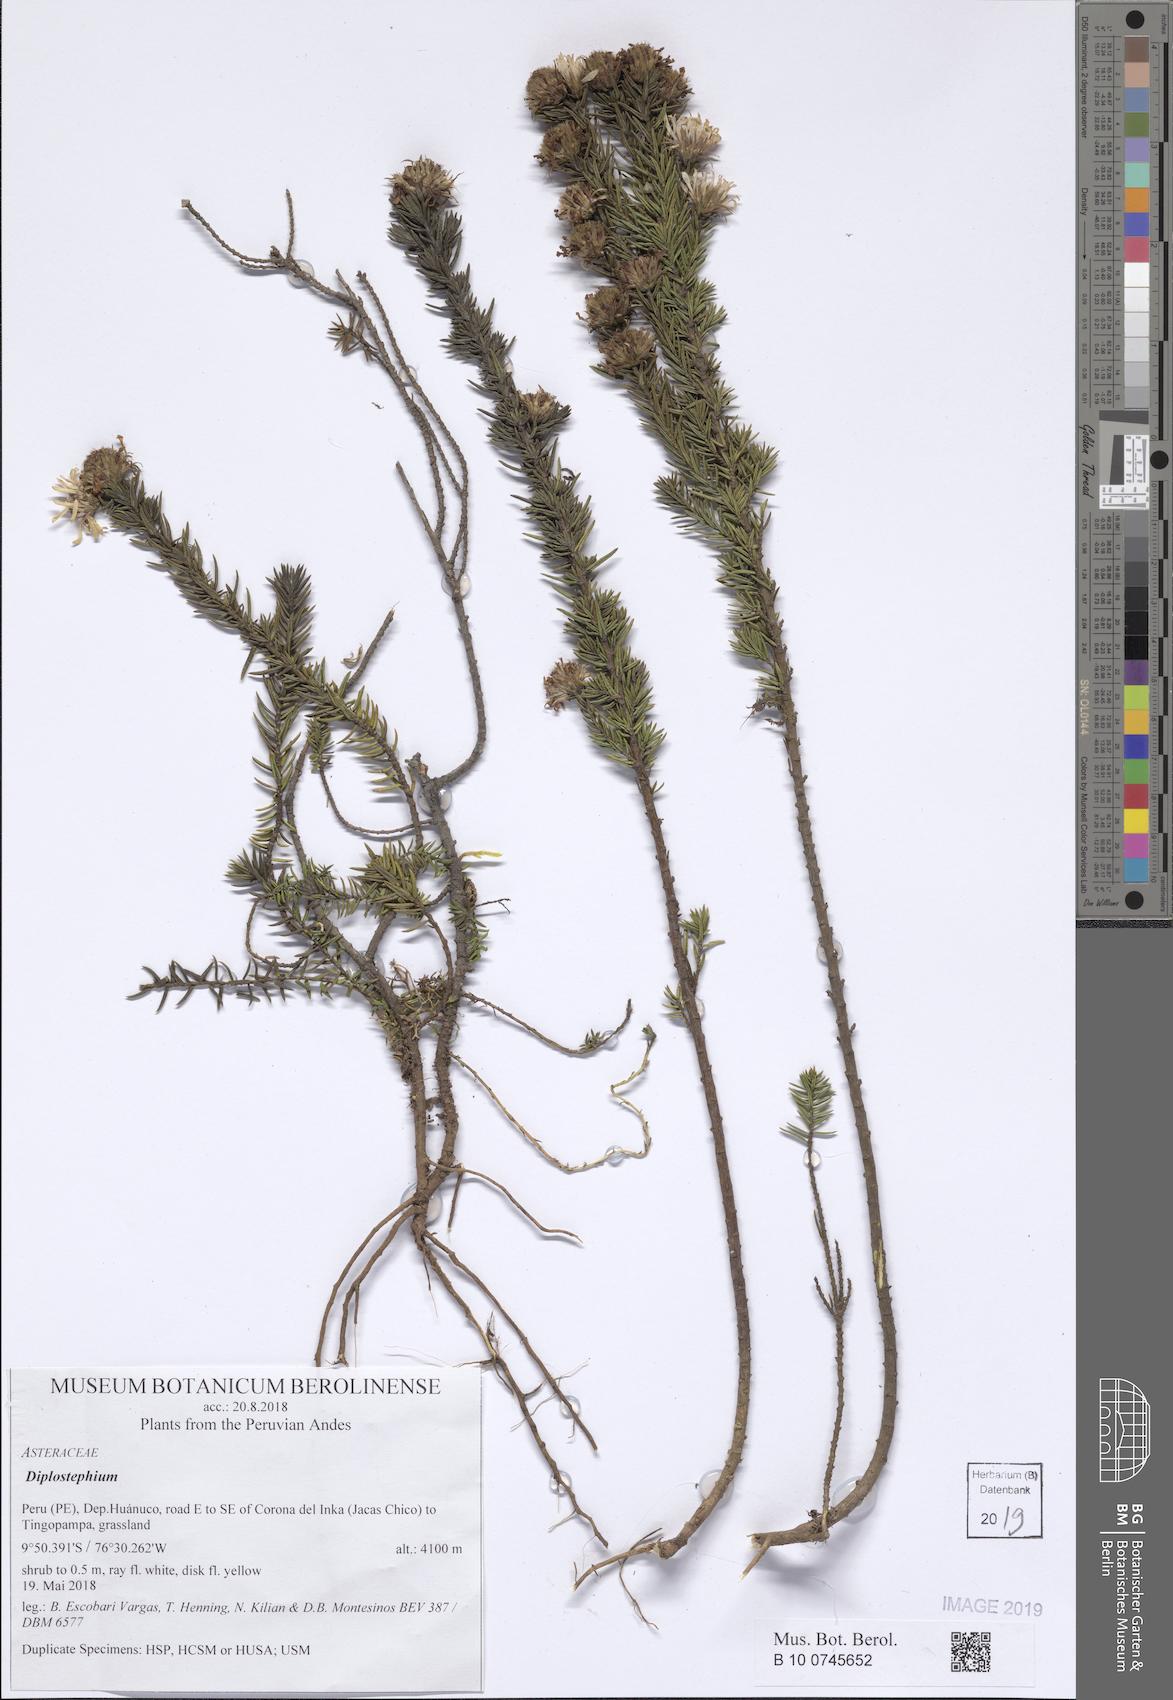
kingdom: Plantae
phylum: Tracheophyta
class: Magnoliopsida
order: Asterales
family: Asteraceae
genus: Diplostephium
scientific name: Diplostephium
